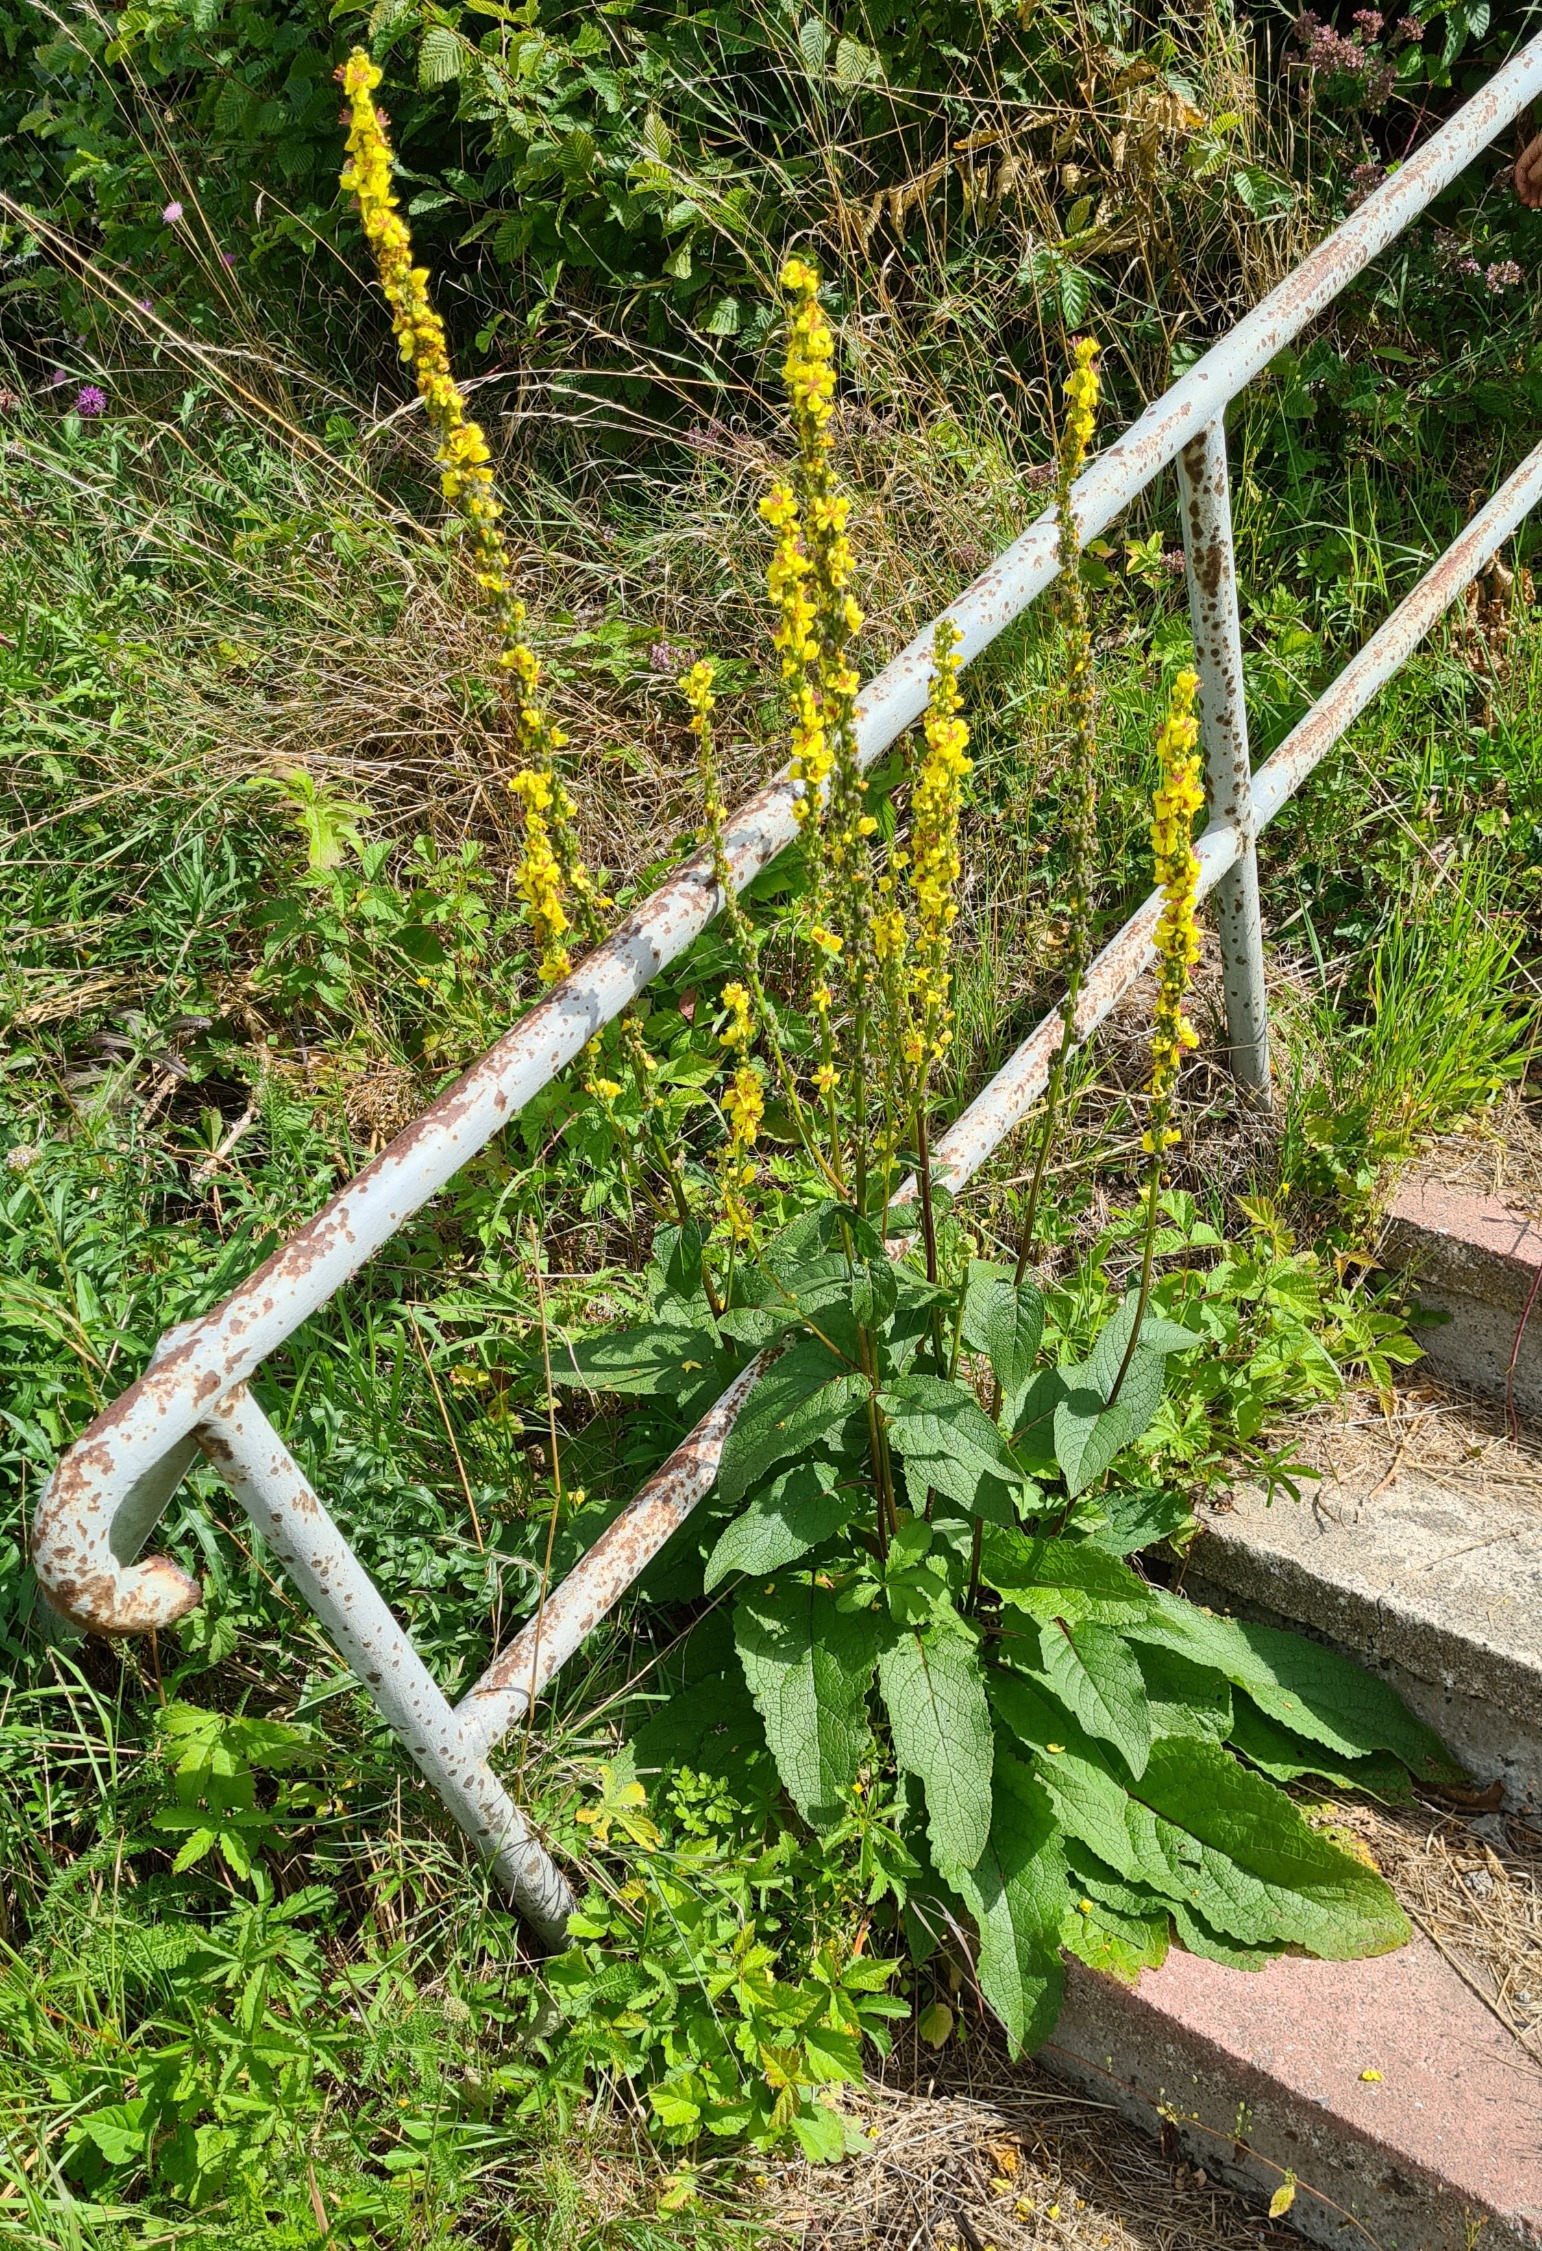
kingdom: Plantae
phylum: Tracheophyta
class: Magnoliopsida
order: Lamiales
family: Scrophulariaceae
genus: Verbascum
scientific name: Verbascum nigrum
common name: Mørk kongelys
